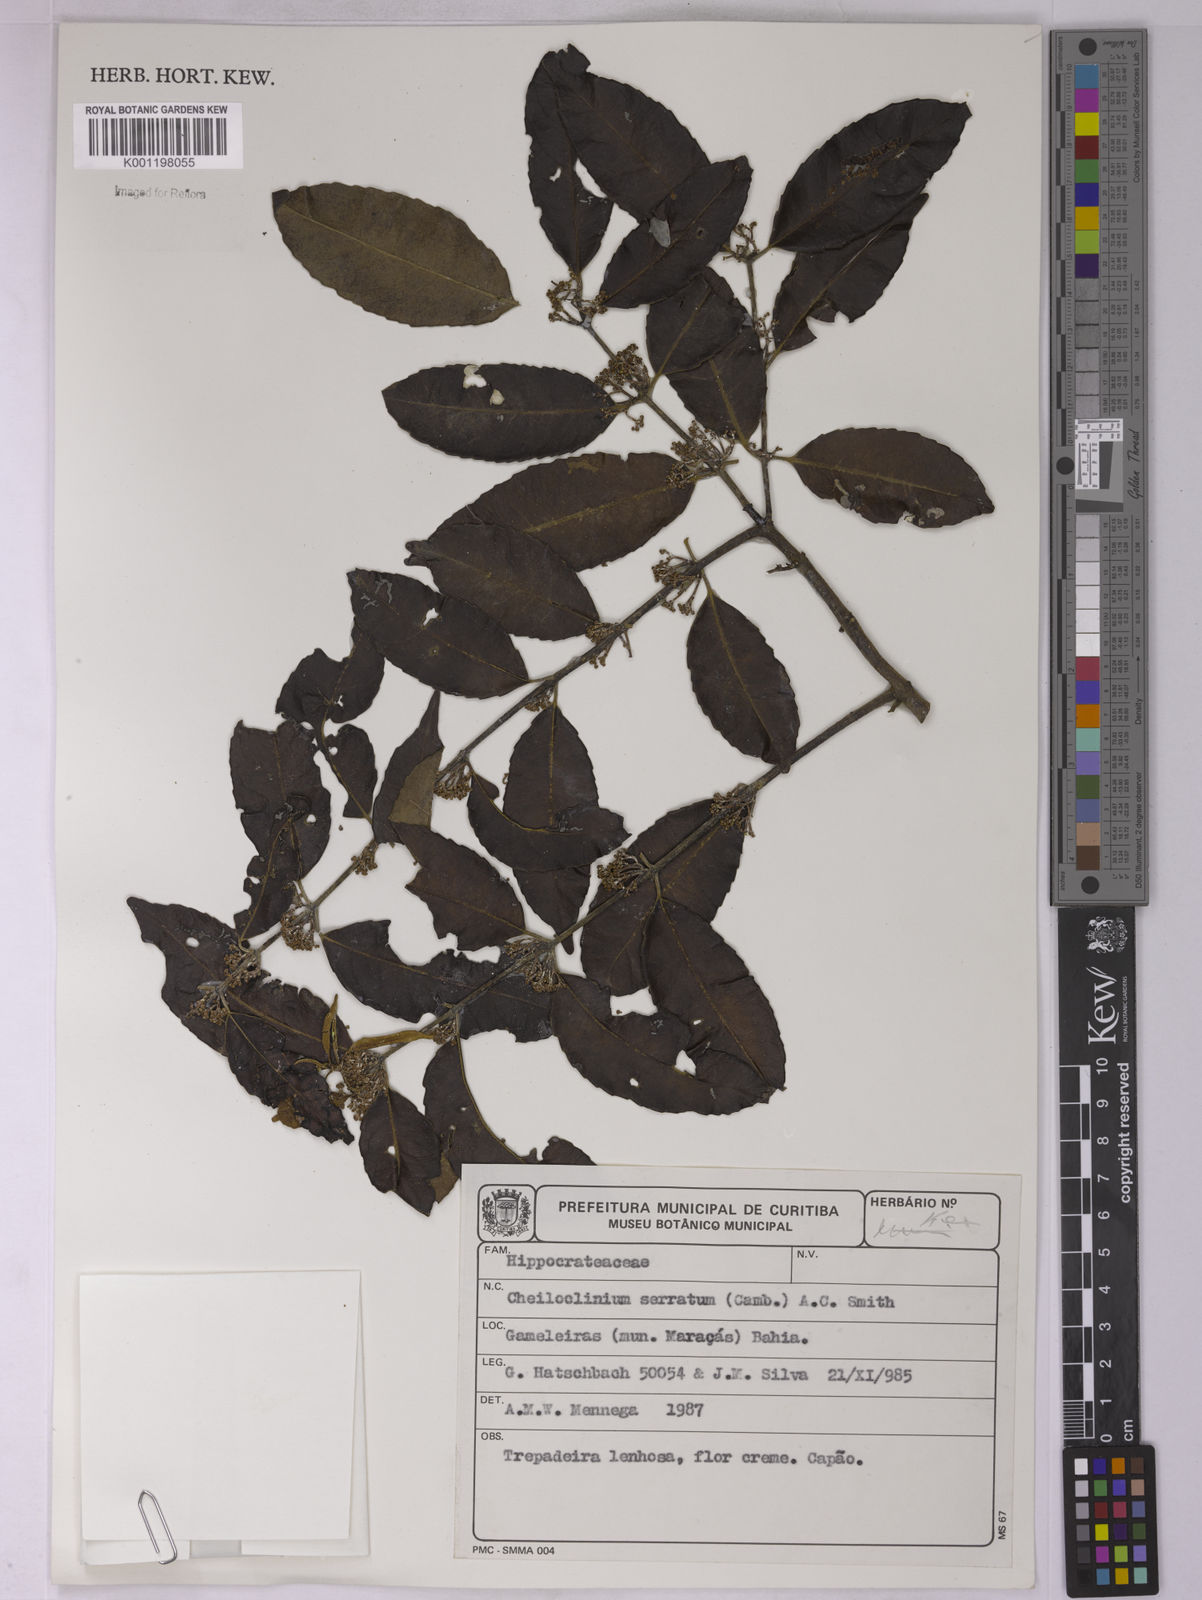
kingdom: Plantae
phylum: Tracheophyta
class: Magnoliopsida
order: Celastrales
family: Celastraceae
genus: Cheiloclinium
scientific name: Cheiloclinium serratum
